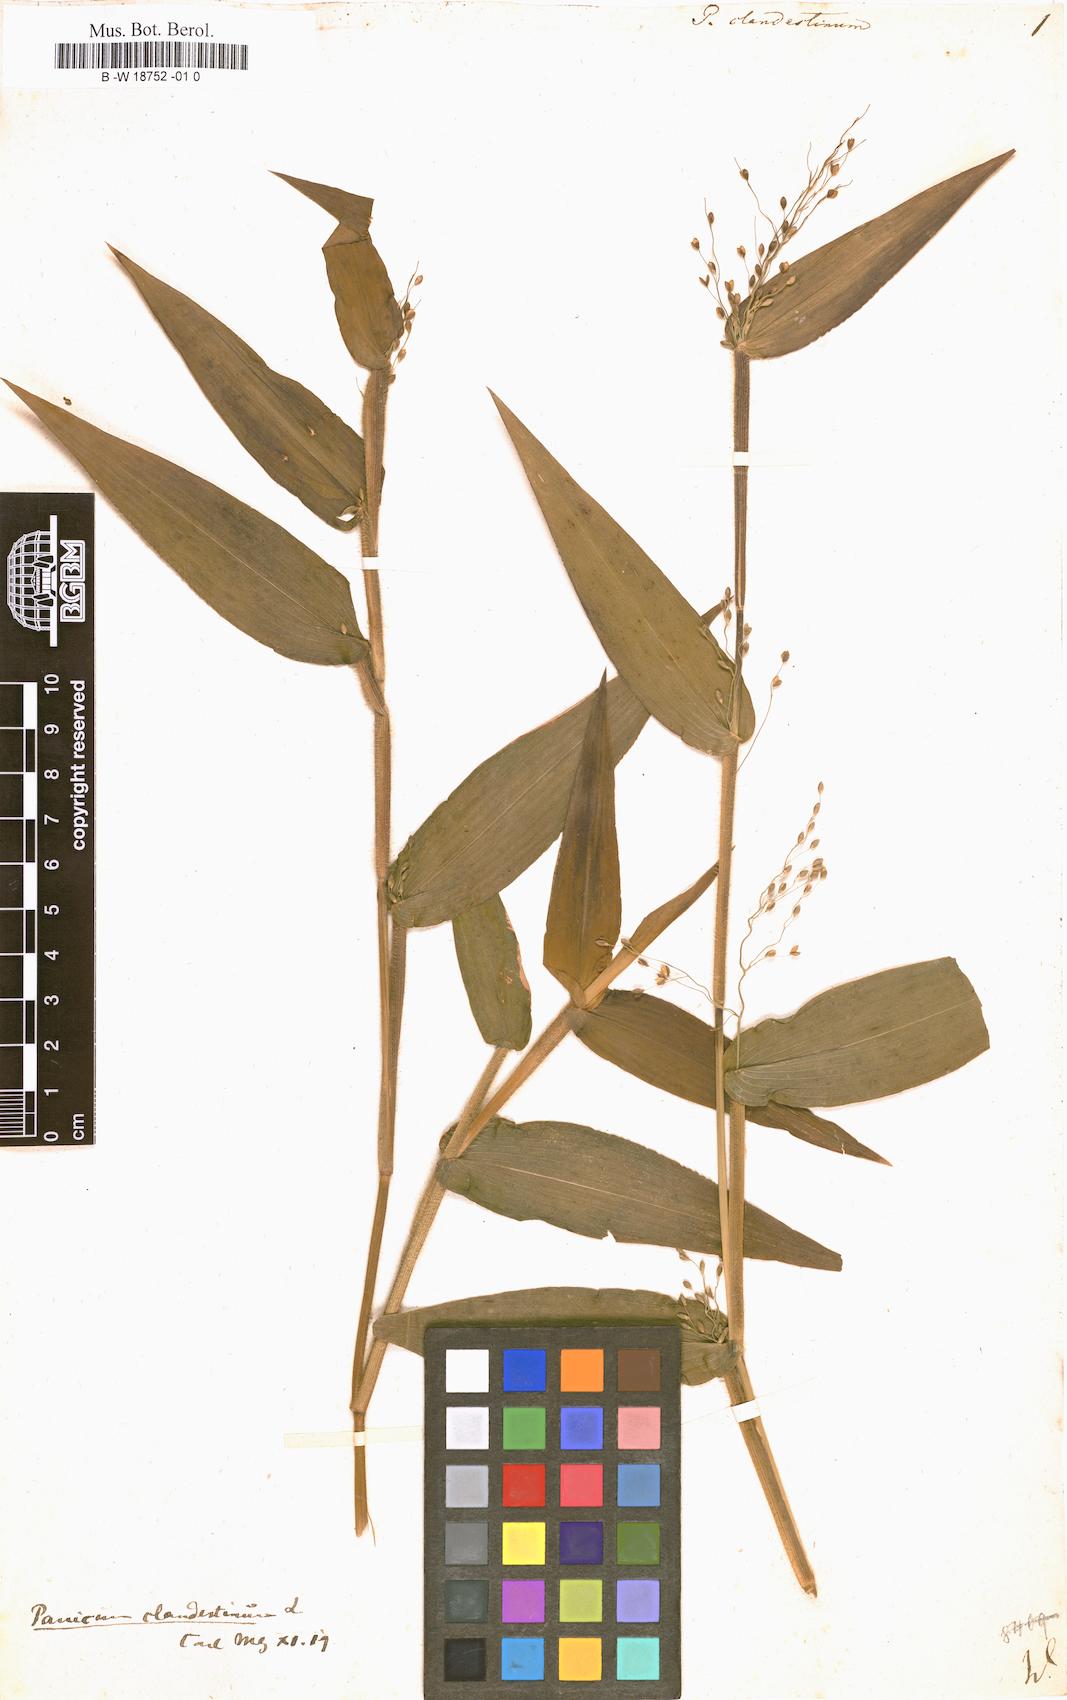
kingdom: Plantae
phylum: Tracheophyta
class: Liliopsida
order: Poales
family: Poaceae
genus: Panicum
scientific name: Panicum clandestinum
